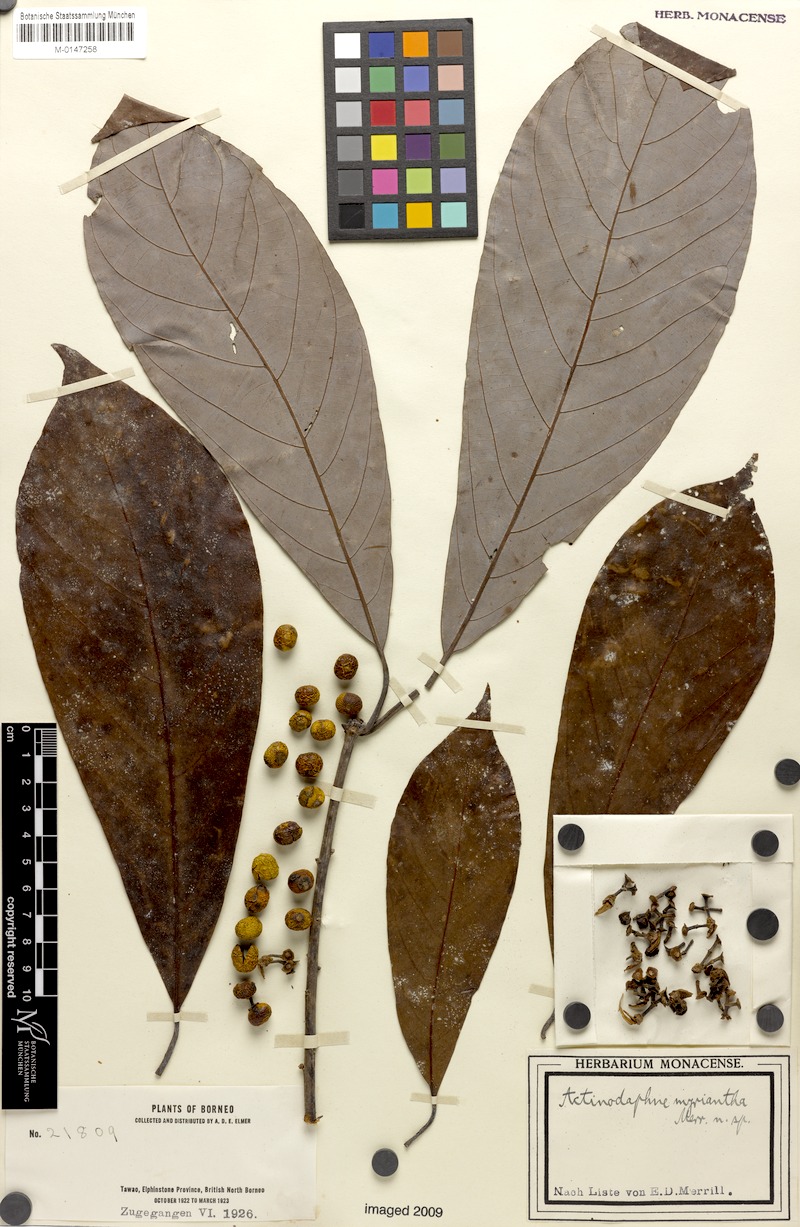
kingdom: Plantae
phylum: Tracheophyta
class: Magnoliopsida
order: Laurales
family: Lauraceae
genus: Actinodaphne
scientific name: Actinodaphne myriantha
